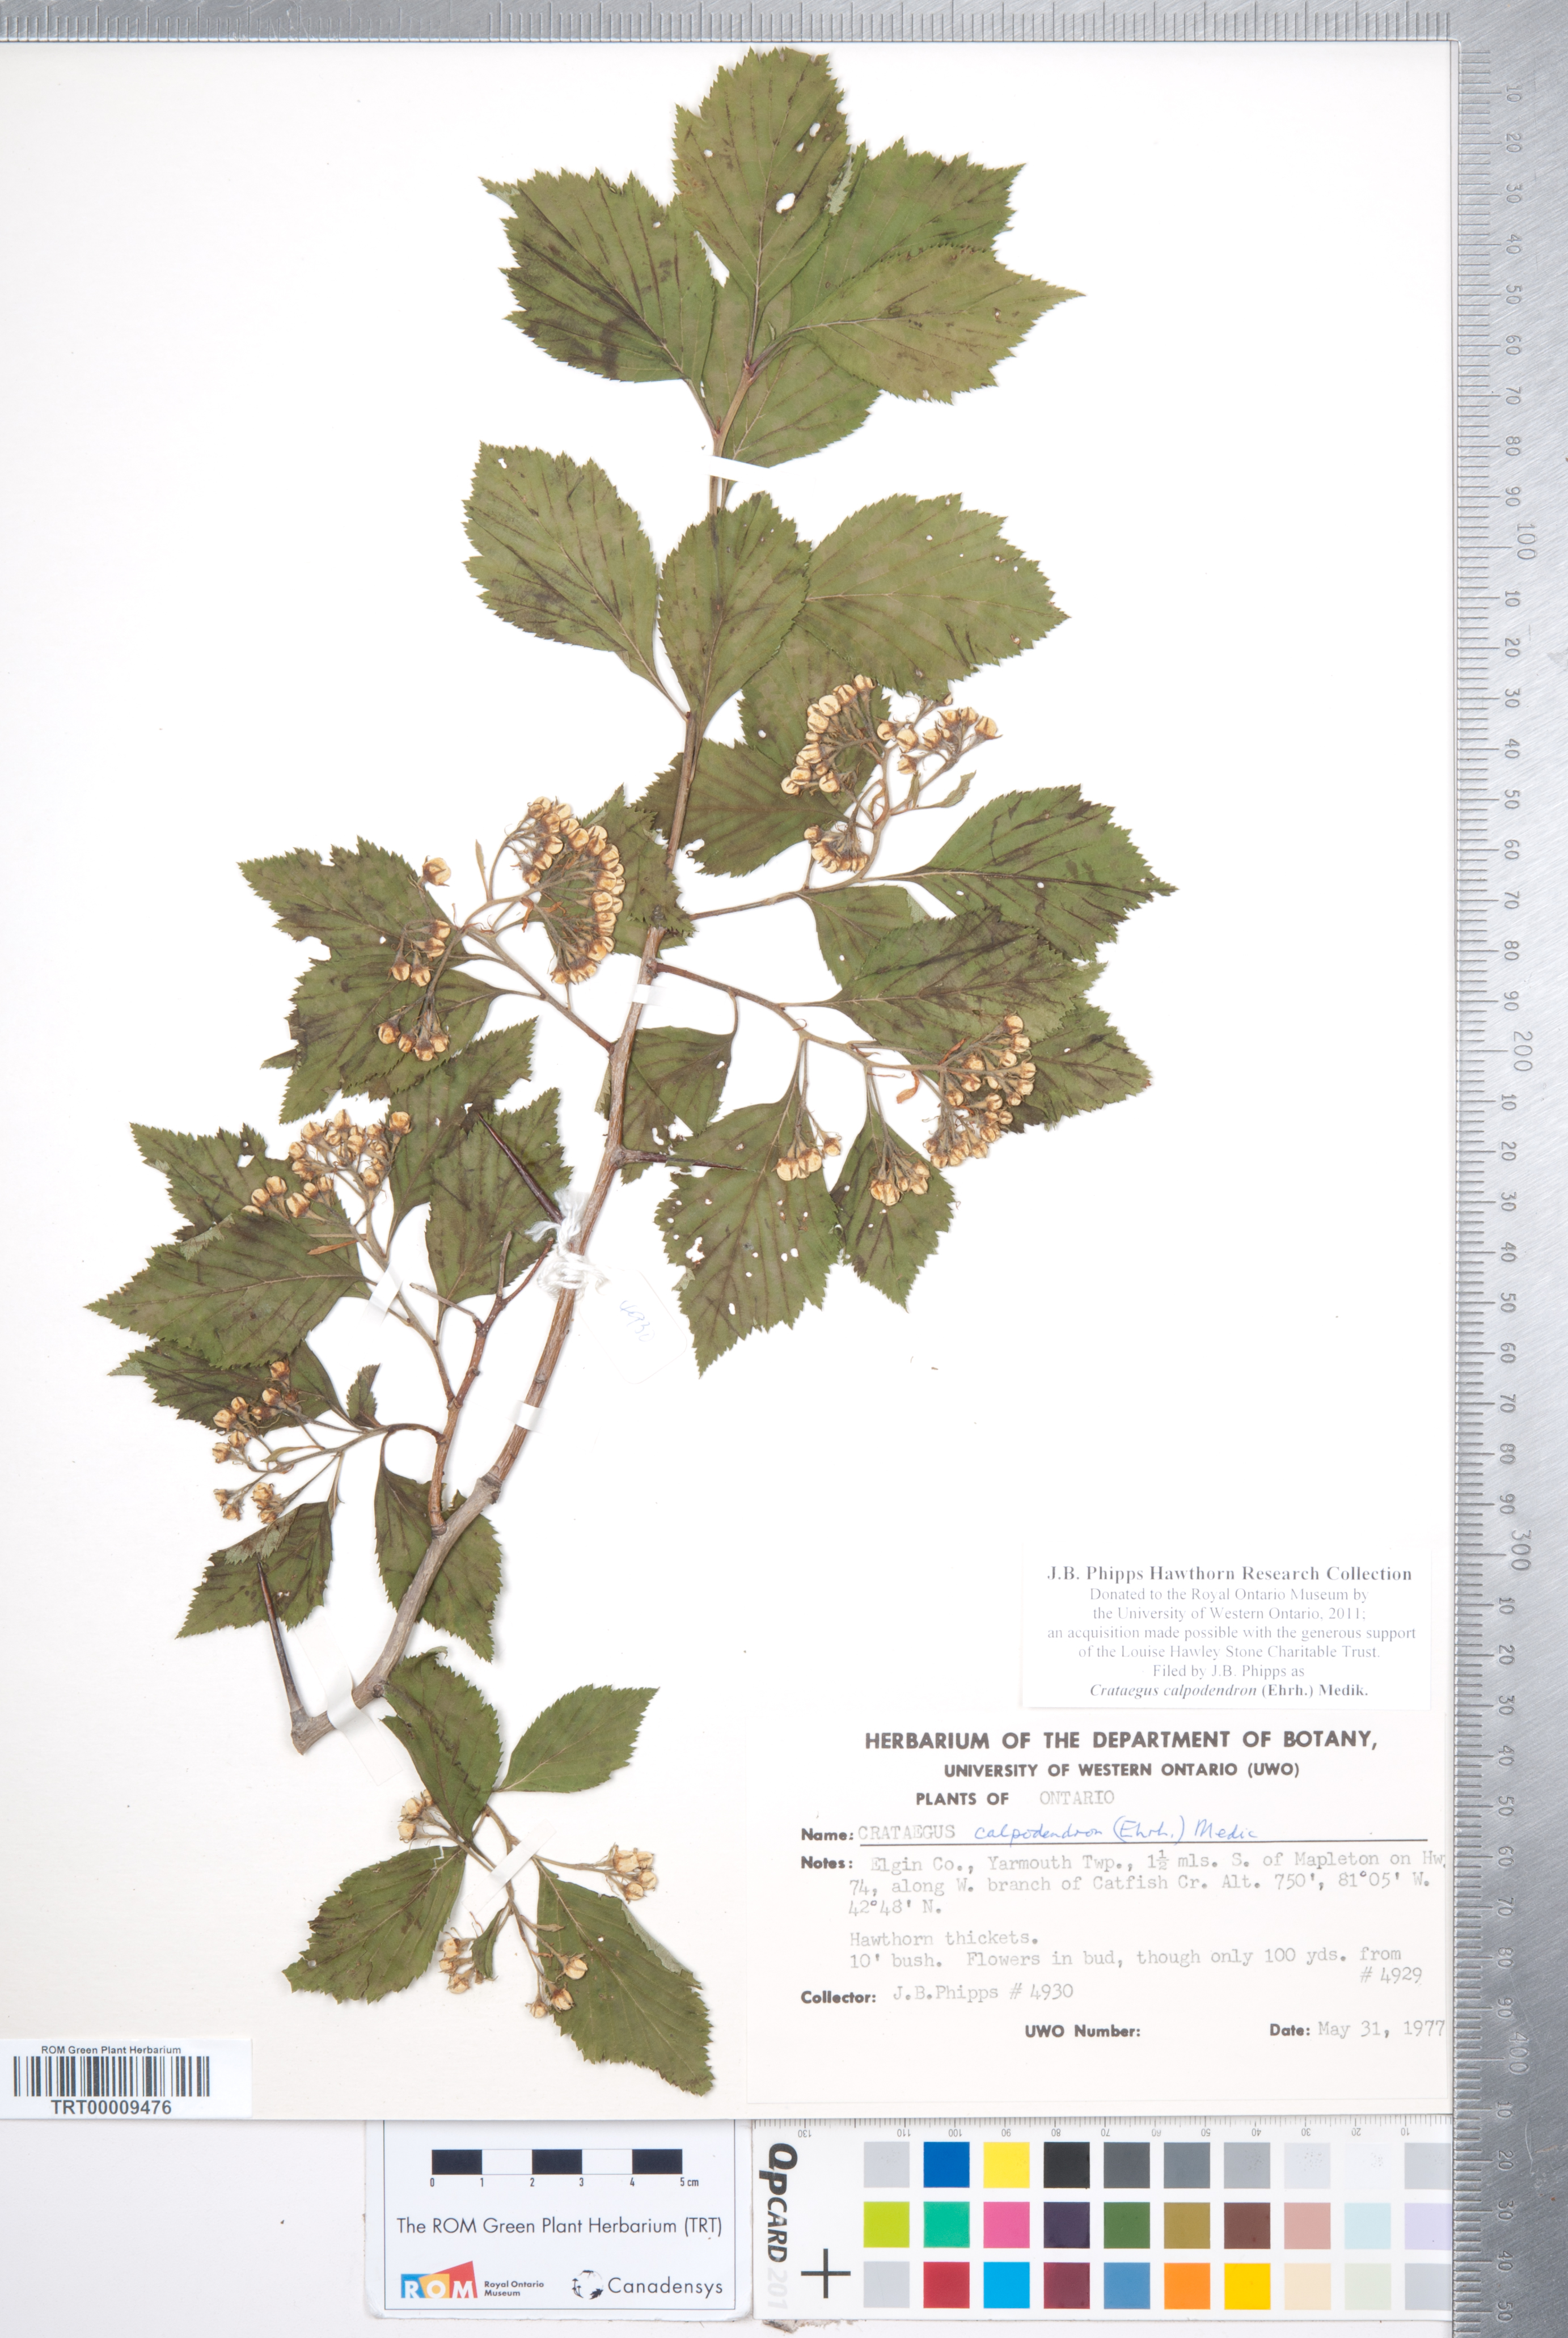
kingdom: Plantae
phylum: Tracheophyta
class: Magnoliopsida
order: Rosales
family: Rosaceae
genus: Crataegus
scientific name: Crataegus calpodendron
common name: Pear hawthorn
